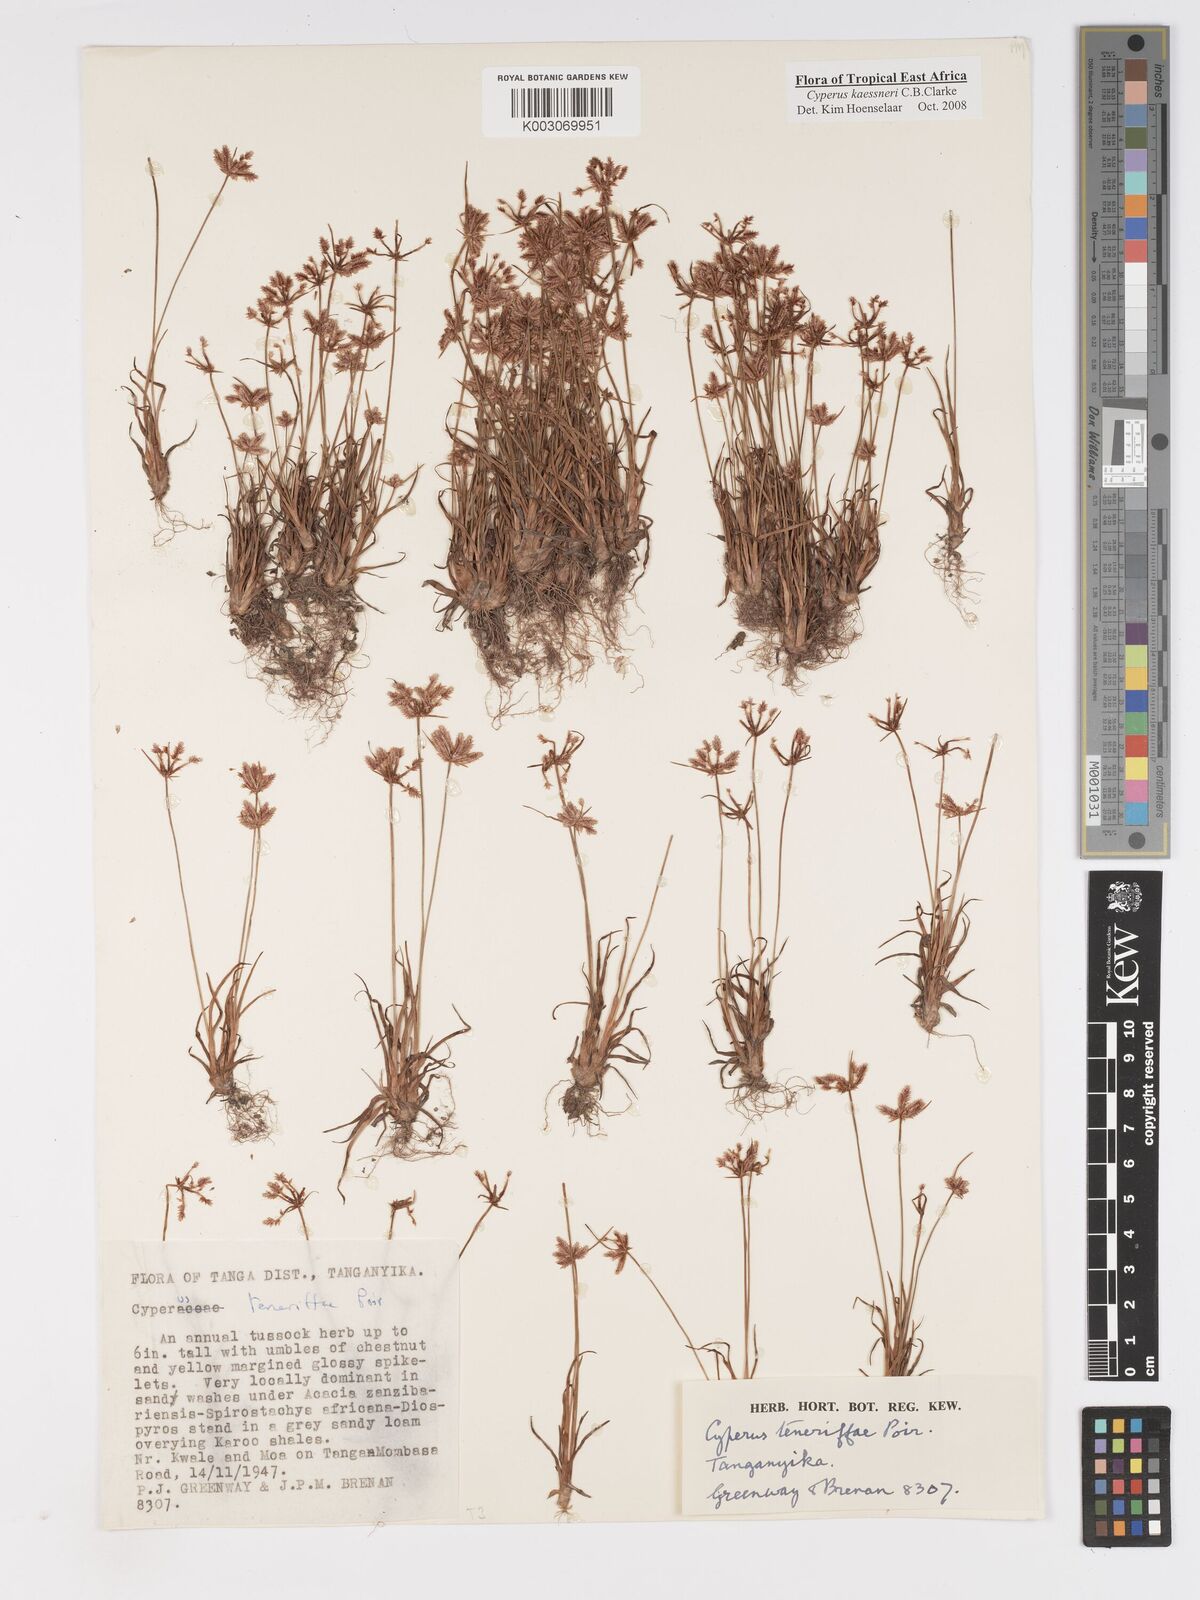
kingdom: Plantae
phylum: Tracheophyta
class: Liliopsida
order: Poales
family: Cyperaceae
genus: Cyperus
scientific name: Cyperus kaessneri
